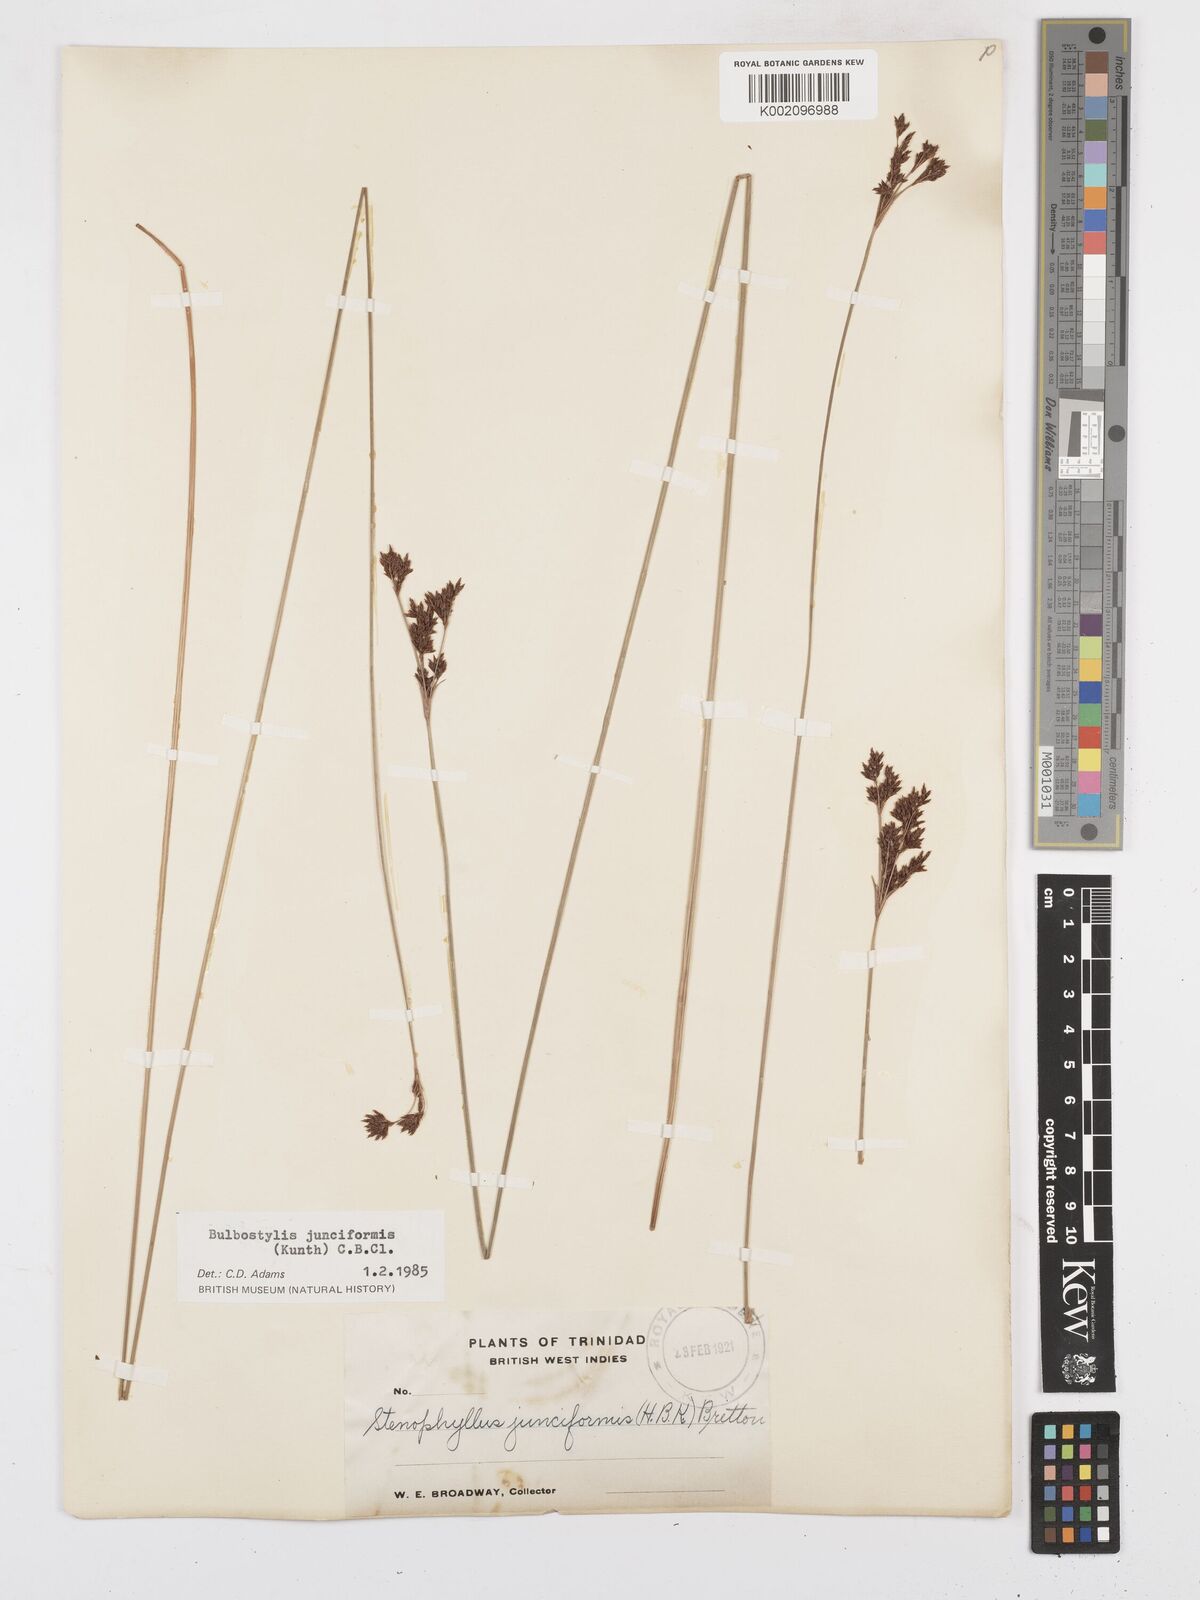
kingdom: Plantae
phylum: Tracheophyta
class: Liliopsida
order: Poales
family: Cyperaceae
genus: Bulbostylis
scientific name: Bulbostylis junciformis
